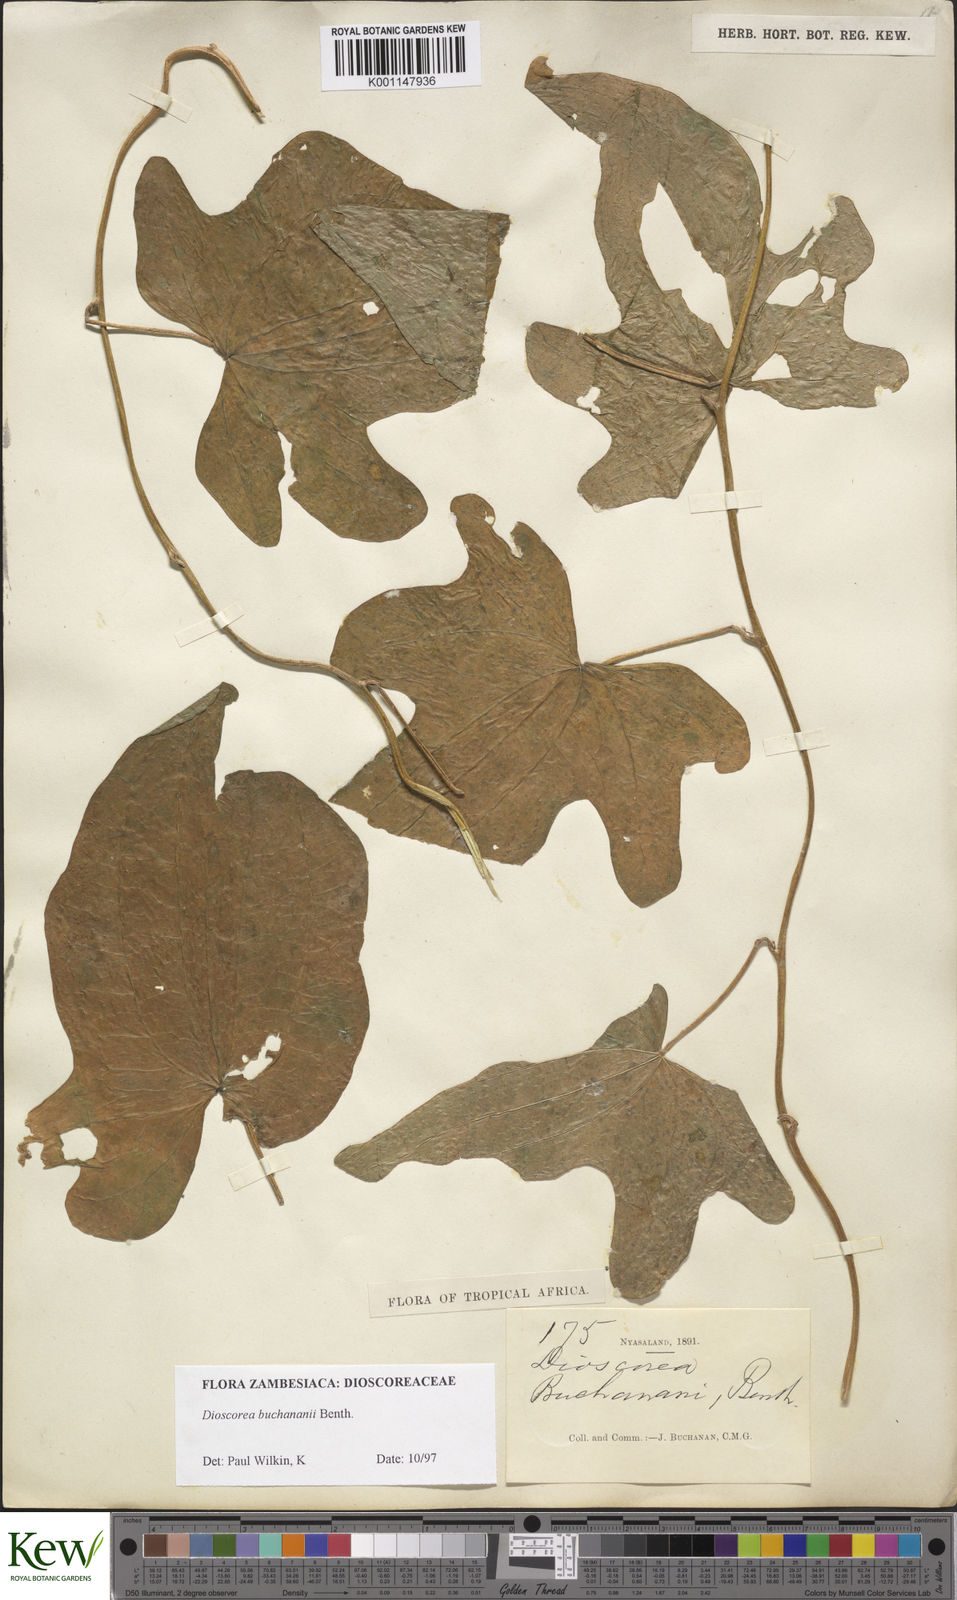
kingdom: Plantae
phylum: Tracheophyta
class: Liliopsida
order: Dioscoreales
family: Dioscoreaceae
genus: Dioscorea
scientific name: Dioscorea buchananii
